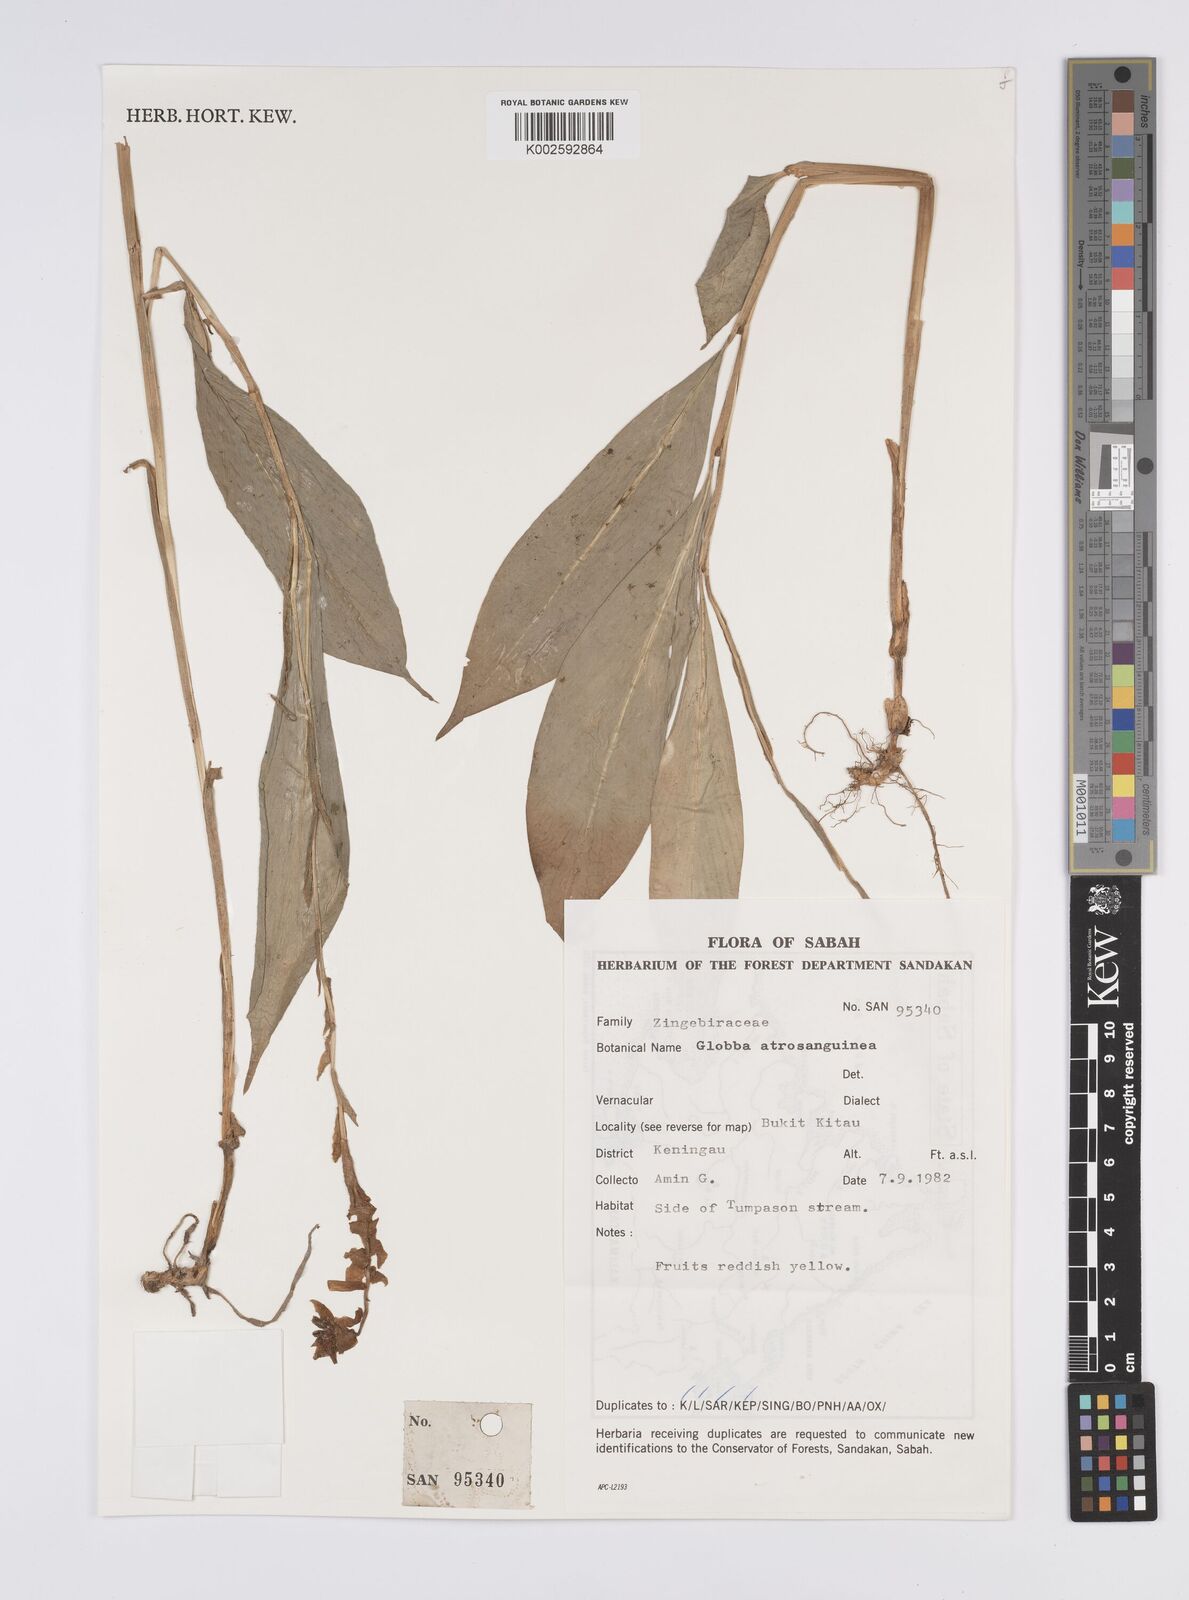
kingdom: Plantae
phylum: Tracheophyta
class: Liliopsida
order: Zingiberales
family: Zingiberaceae
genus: Globba
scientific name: Globba atrosanguinea
